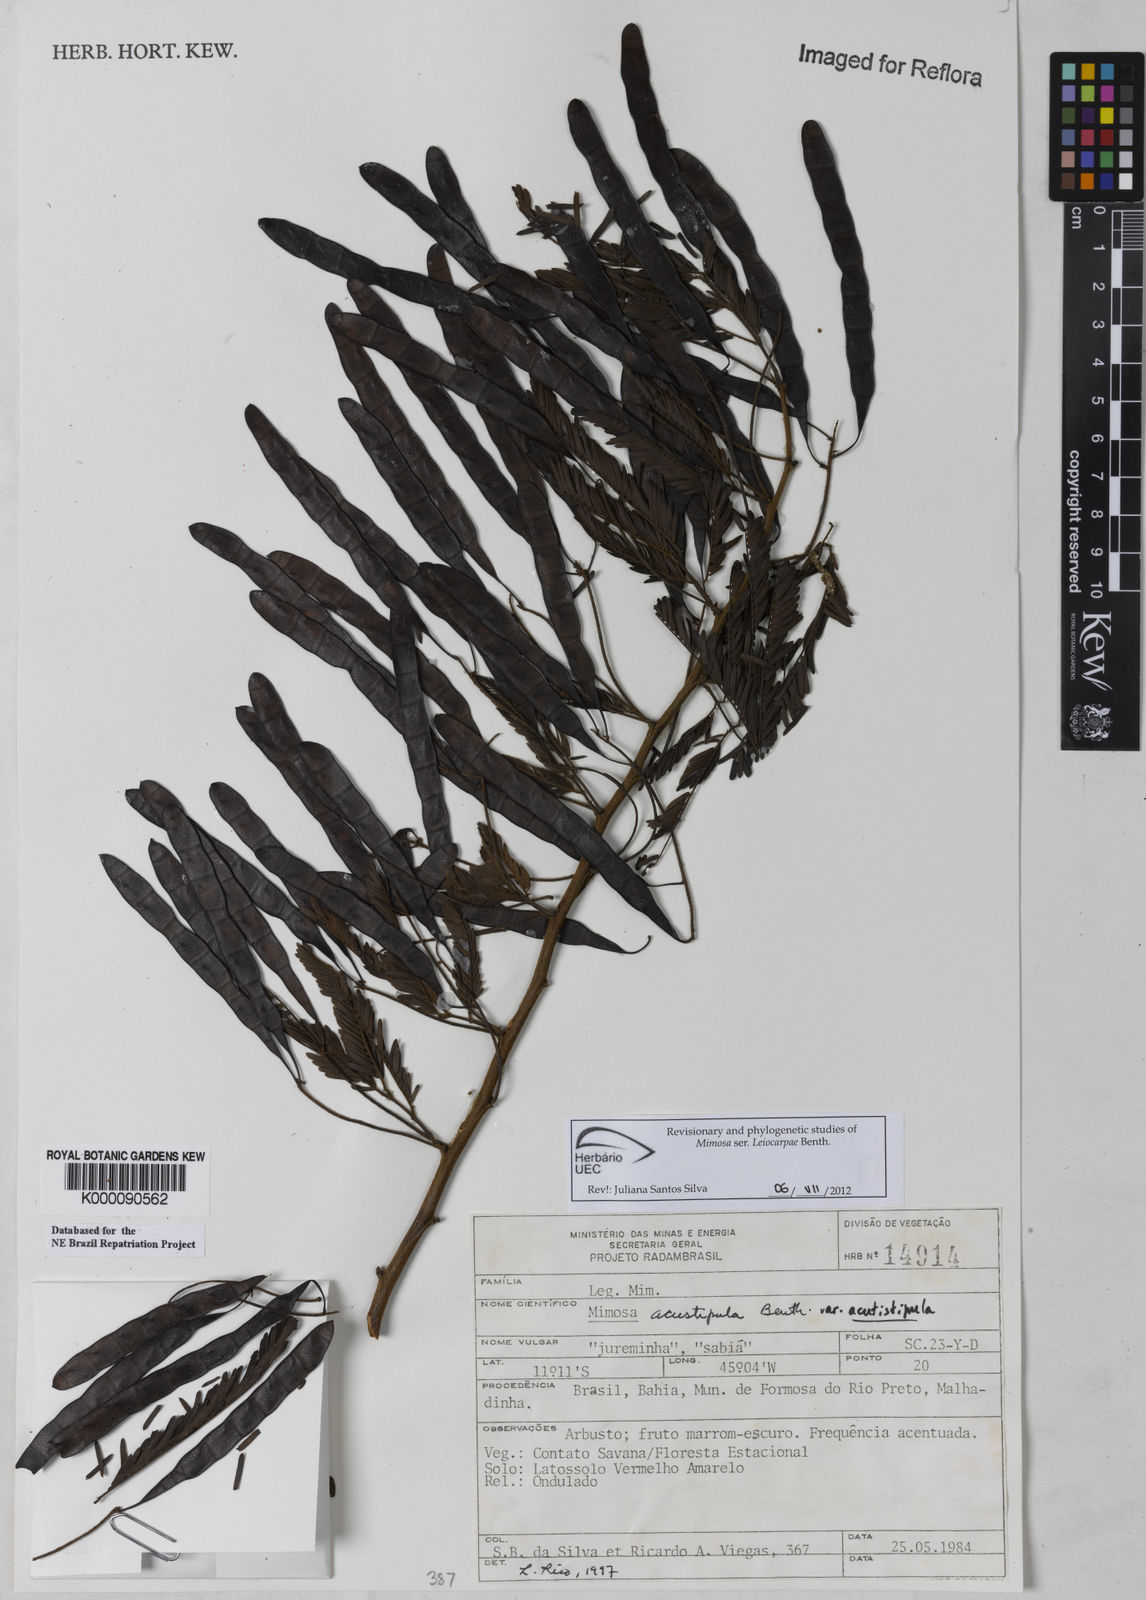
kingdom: Plantae
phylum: Tracheophyta
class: Magnoliopsida
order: Fabales
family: Fabaceae
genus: Mimosa
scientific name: Mimosa acutistipula
